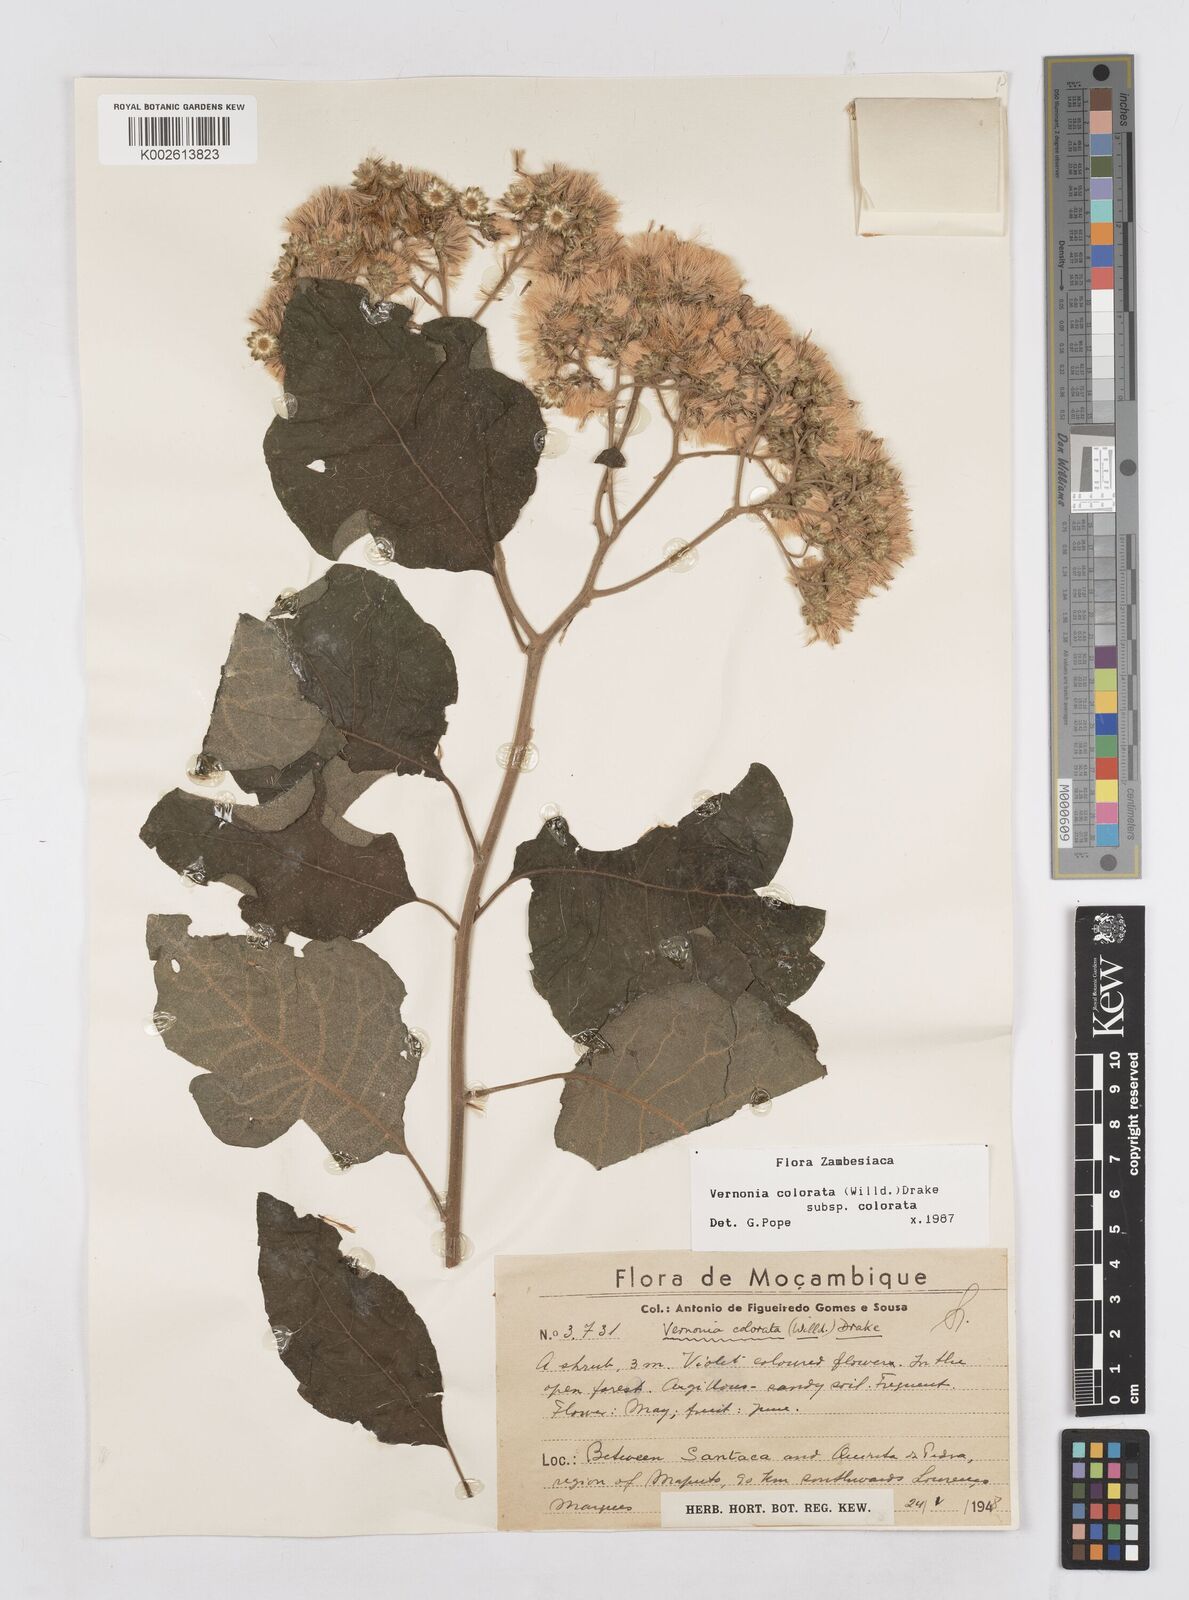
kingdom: Plantae
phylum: Tracheophyta
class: Magnoliopsida
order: Asterales
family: Asteraceae
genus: Vernonia
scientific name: Vernonia colorata
